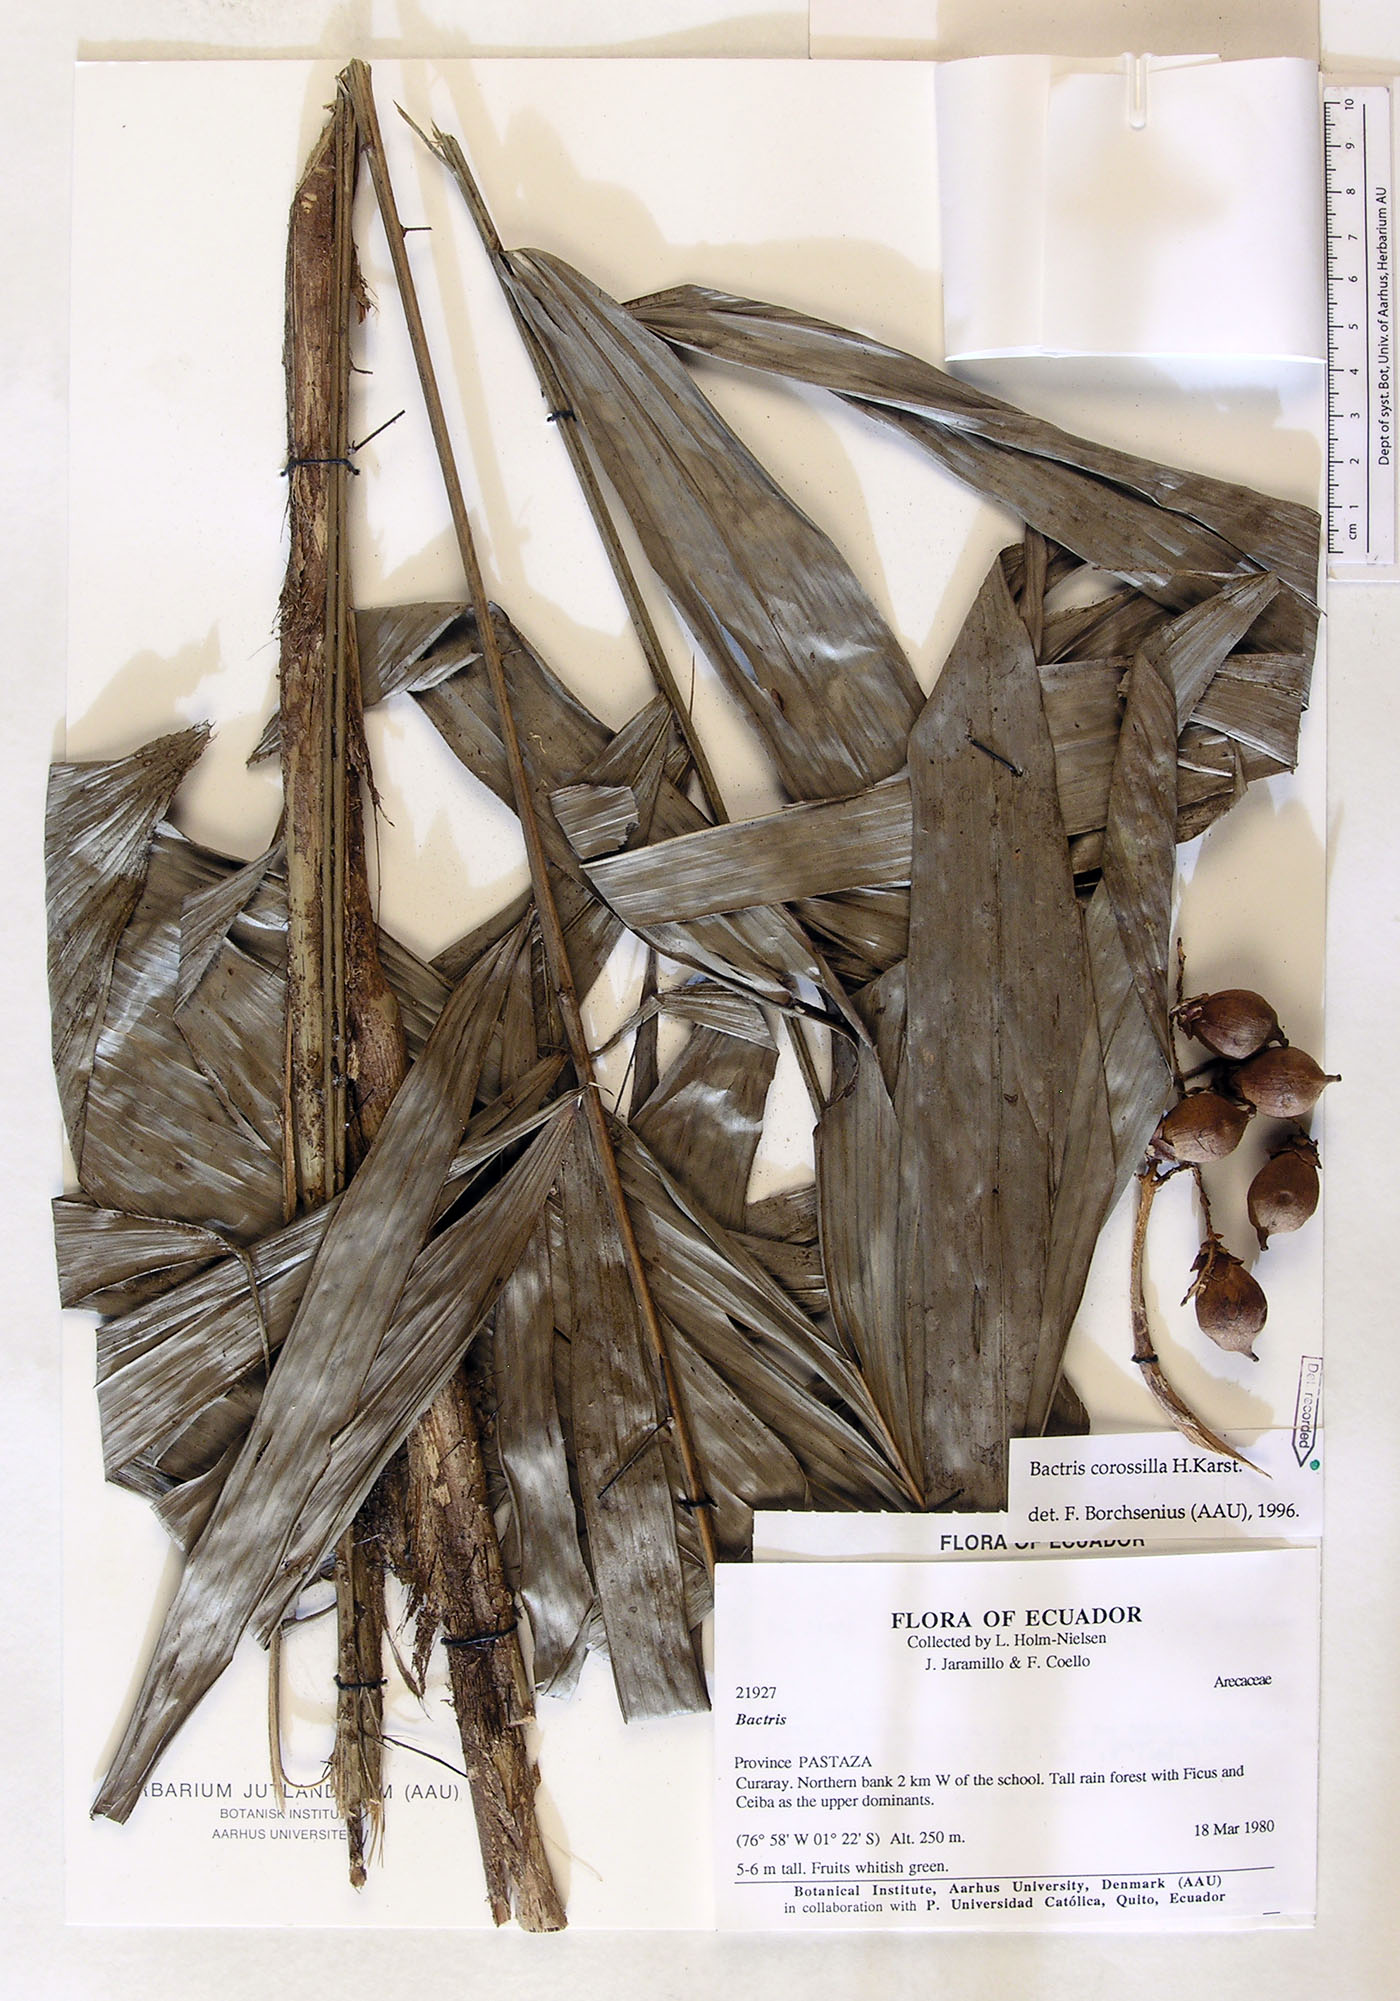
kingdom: Plantae
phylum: Tracheophyta
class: Liliopsida
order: Arecales
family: Arecaceae
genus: Bactris
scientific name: Bactris corossilla
